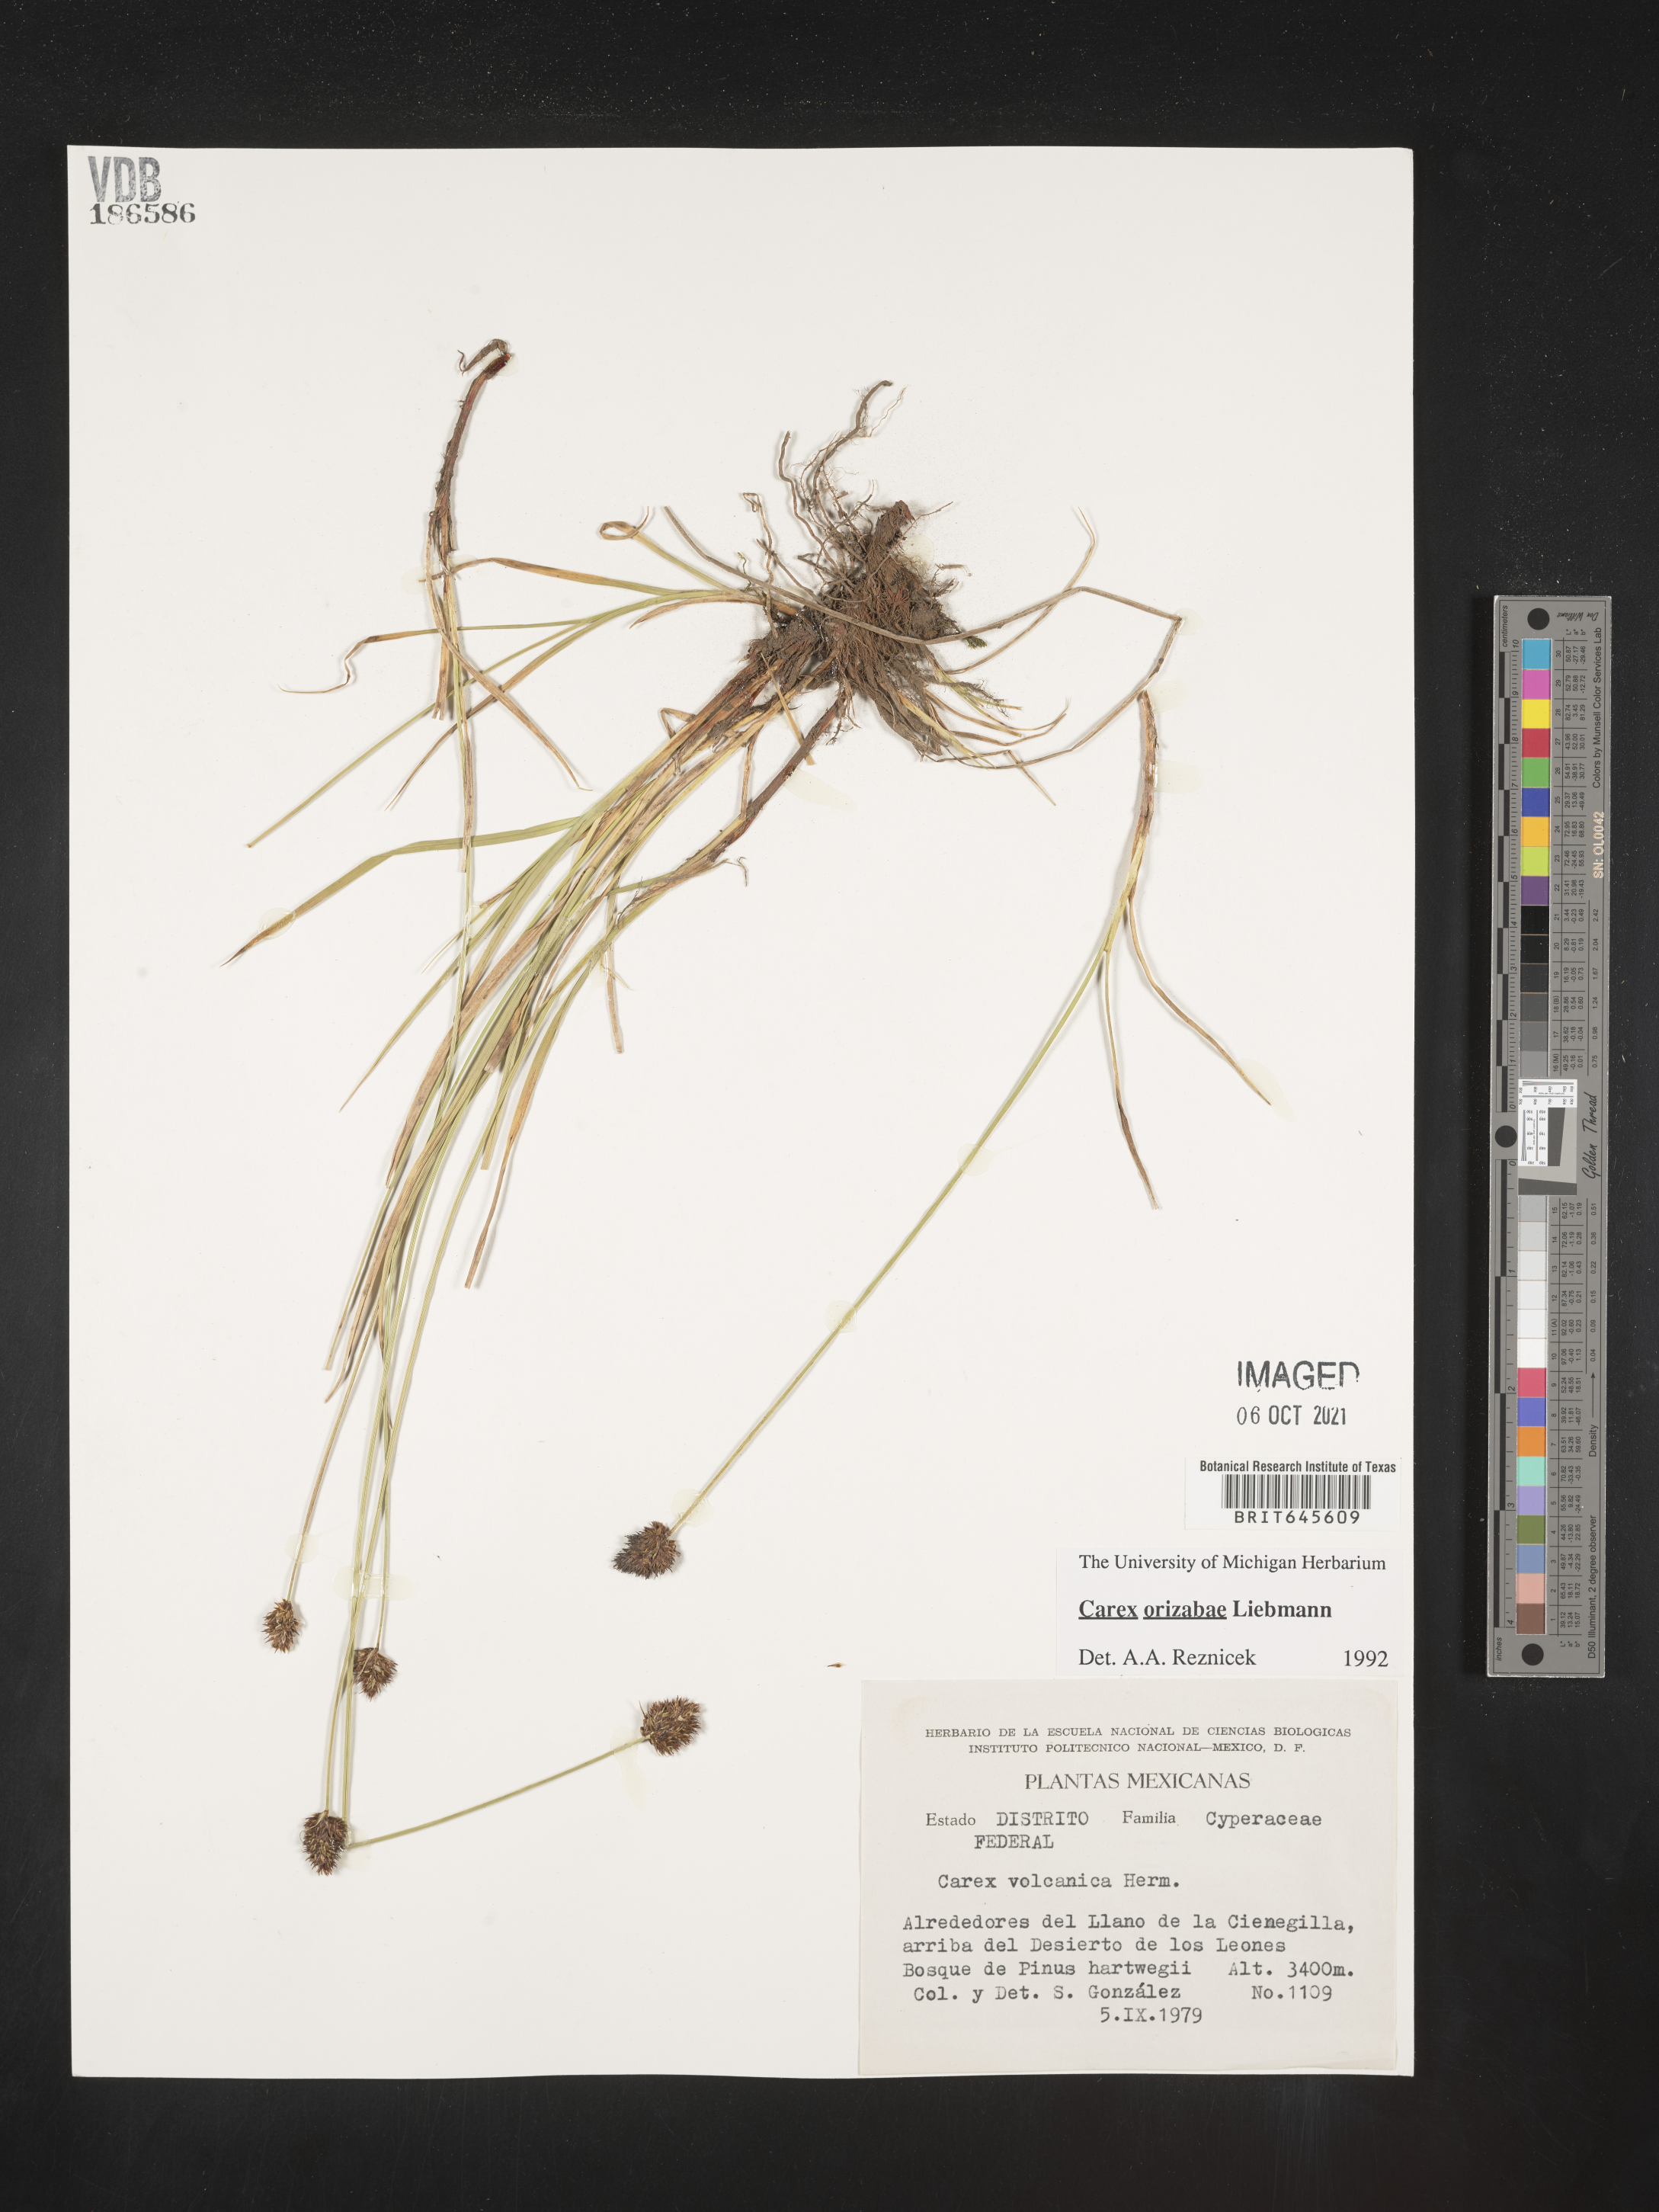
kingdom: Plantae
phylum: Tracheophyta
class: Liliopsida
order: Poales
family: Cyperaceae
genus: Carex
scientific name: Carex
